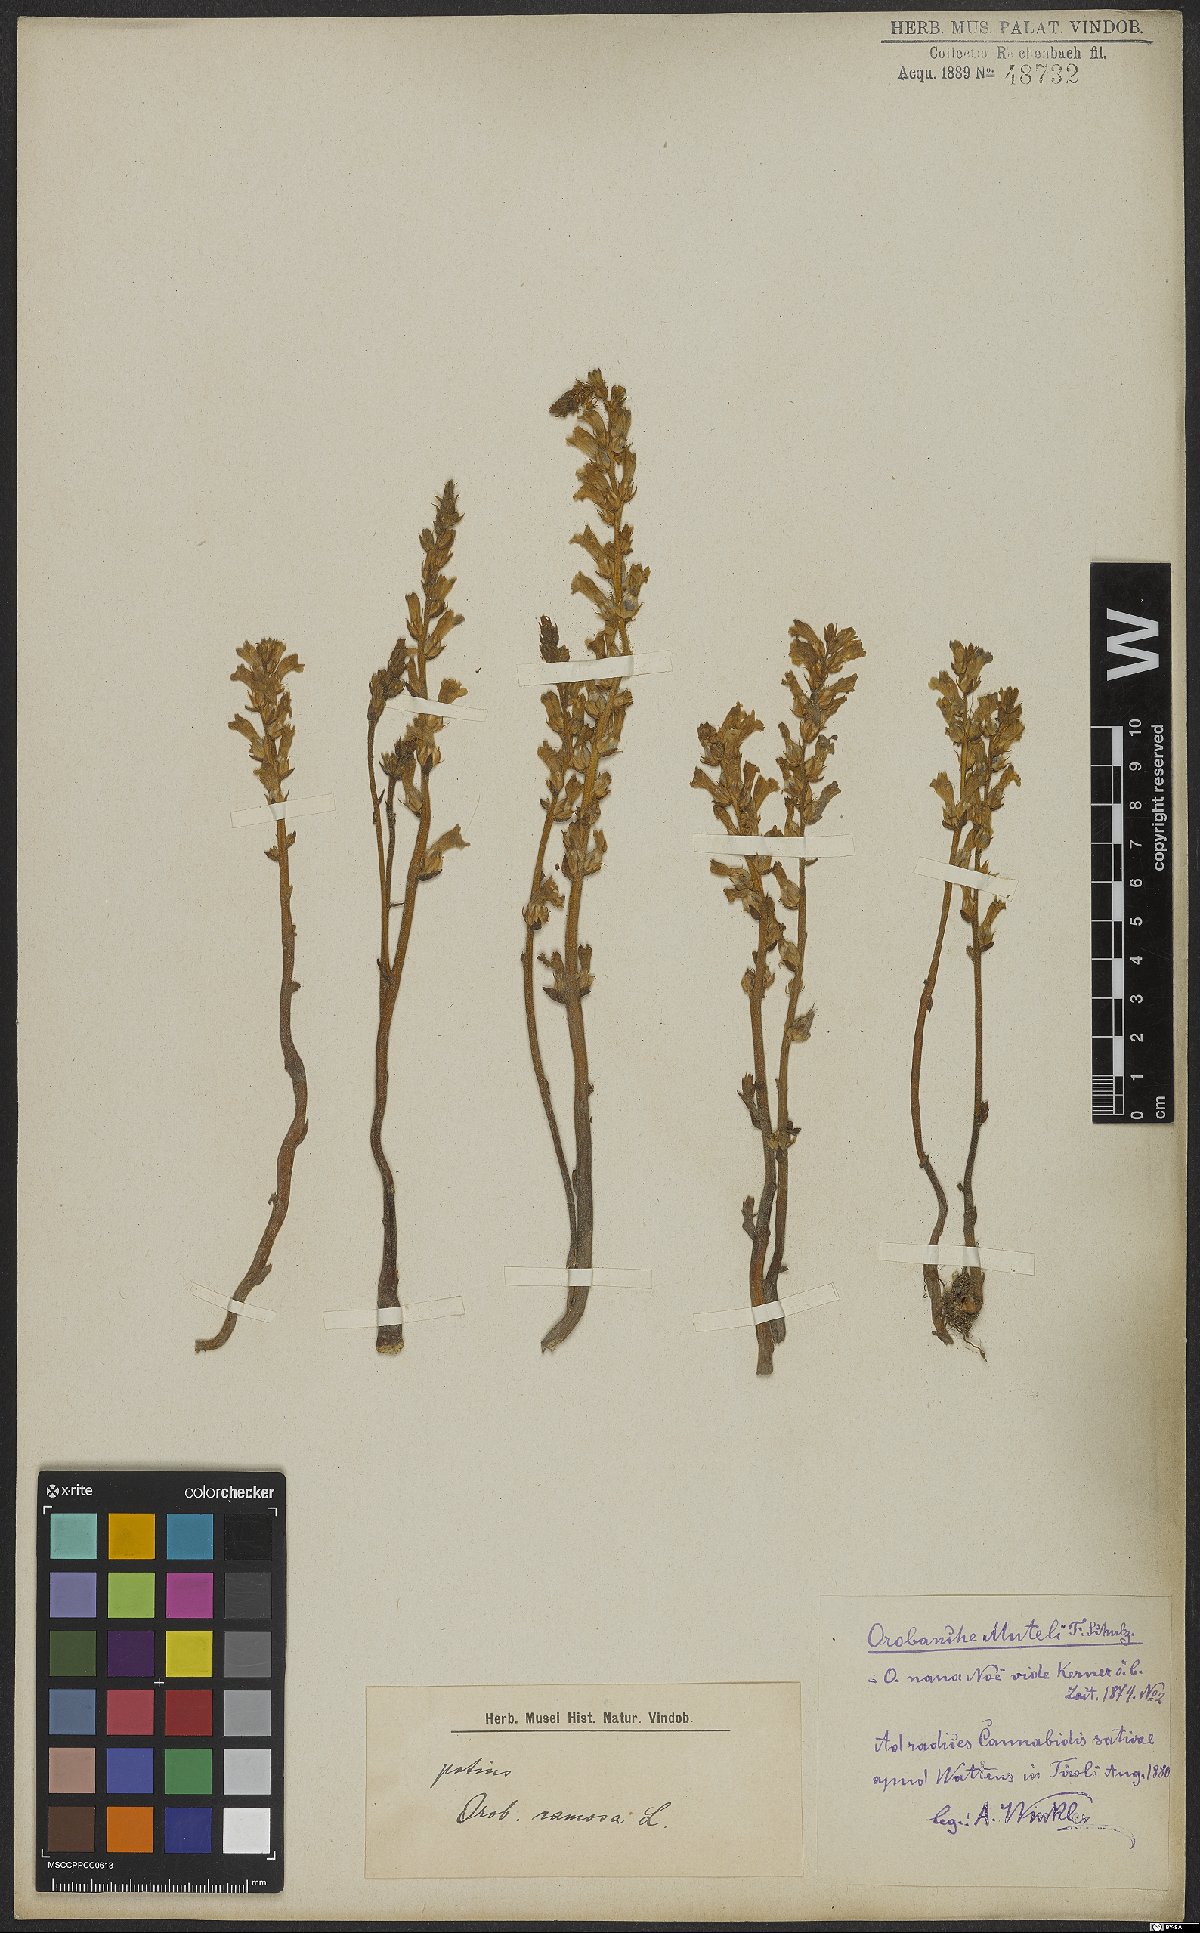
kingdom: Plantae
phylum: Tracheophyta
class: Magnoliopsida
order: Lamiales
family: Orobanchaceae
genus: Phelipanche
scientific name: Phelipanche ramosa
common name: Branched broomrape
